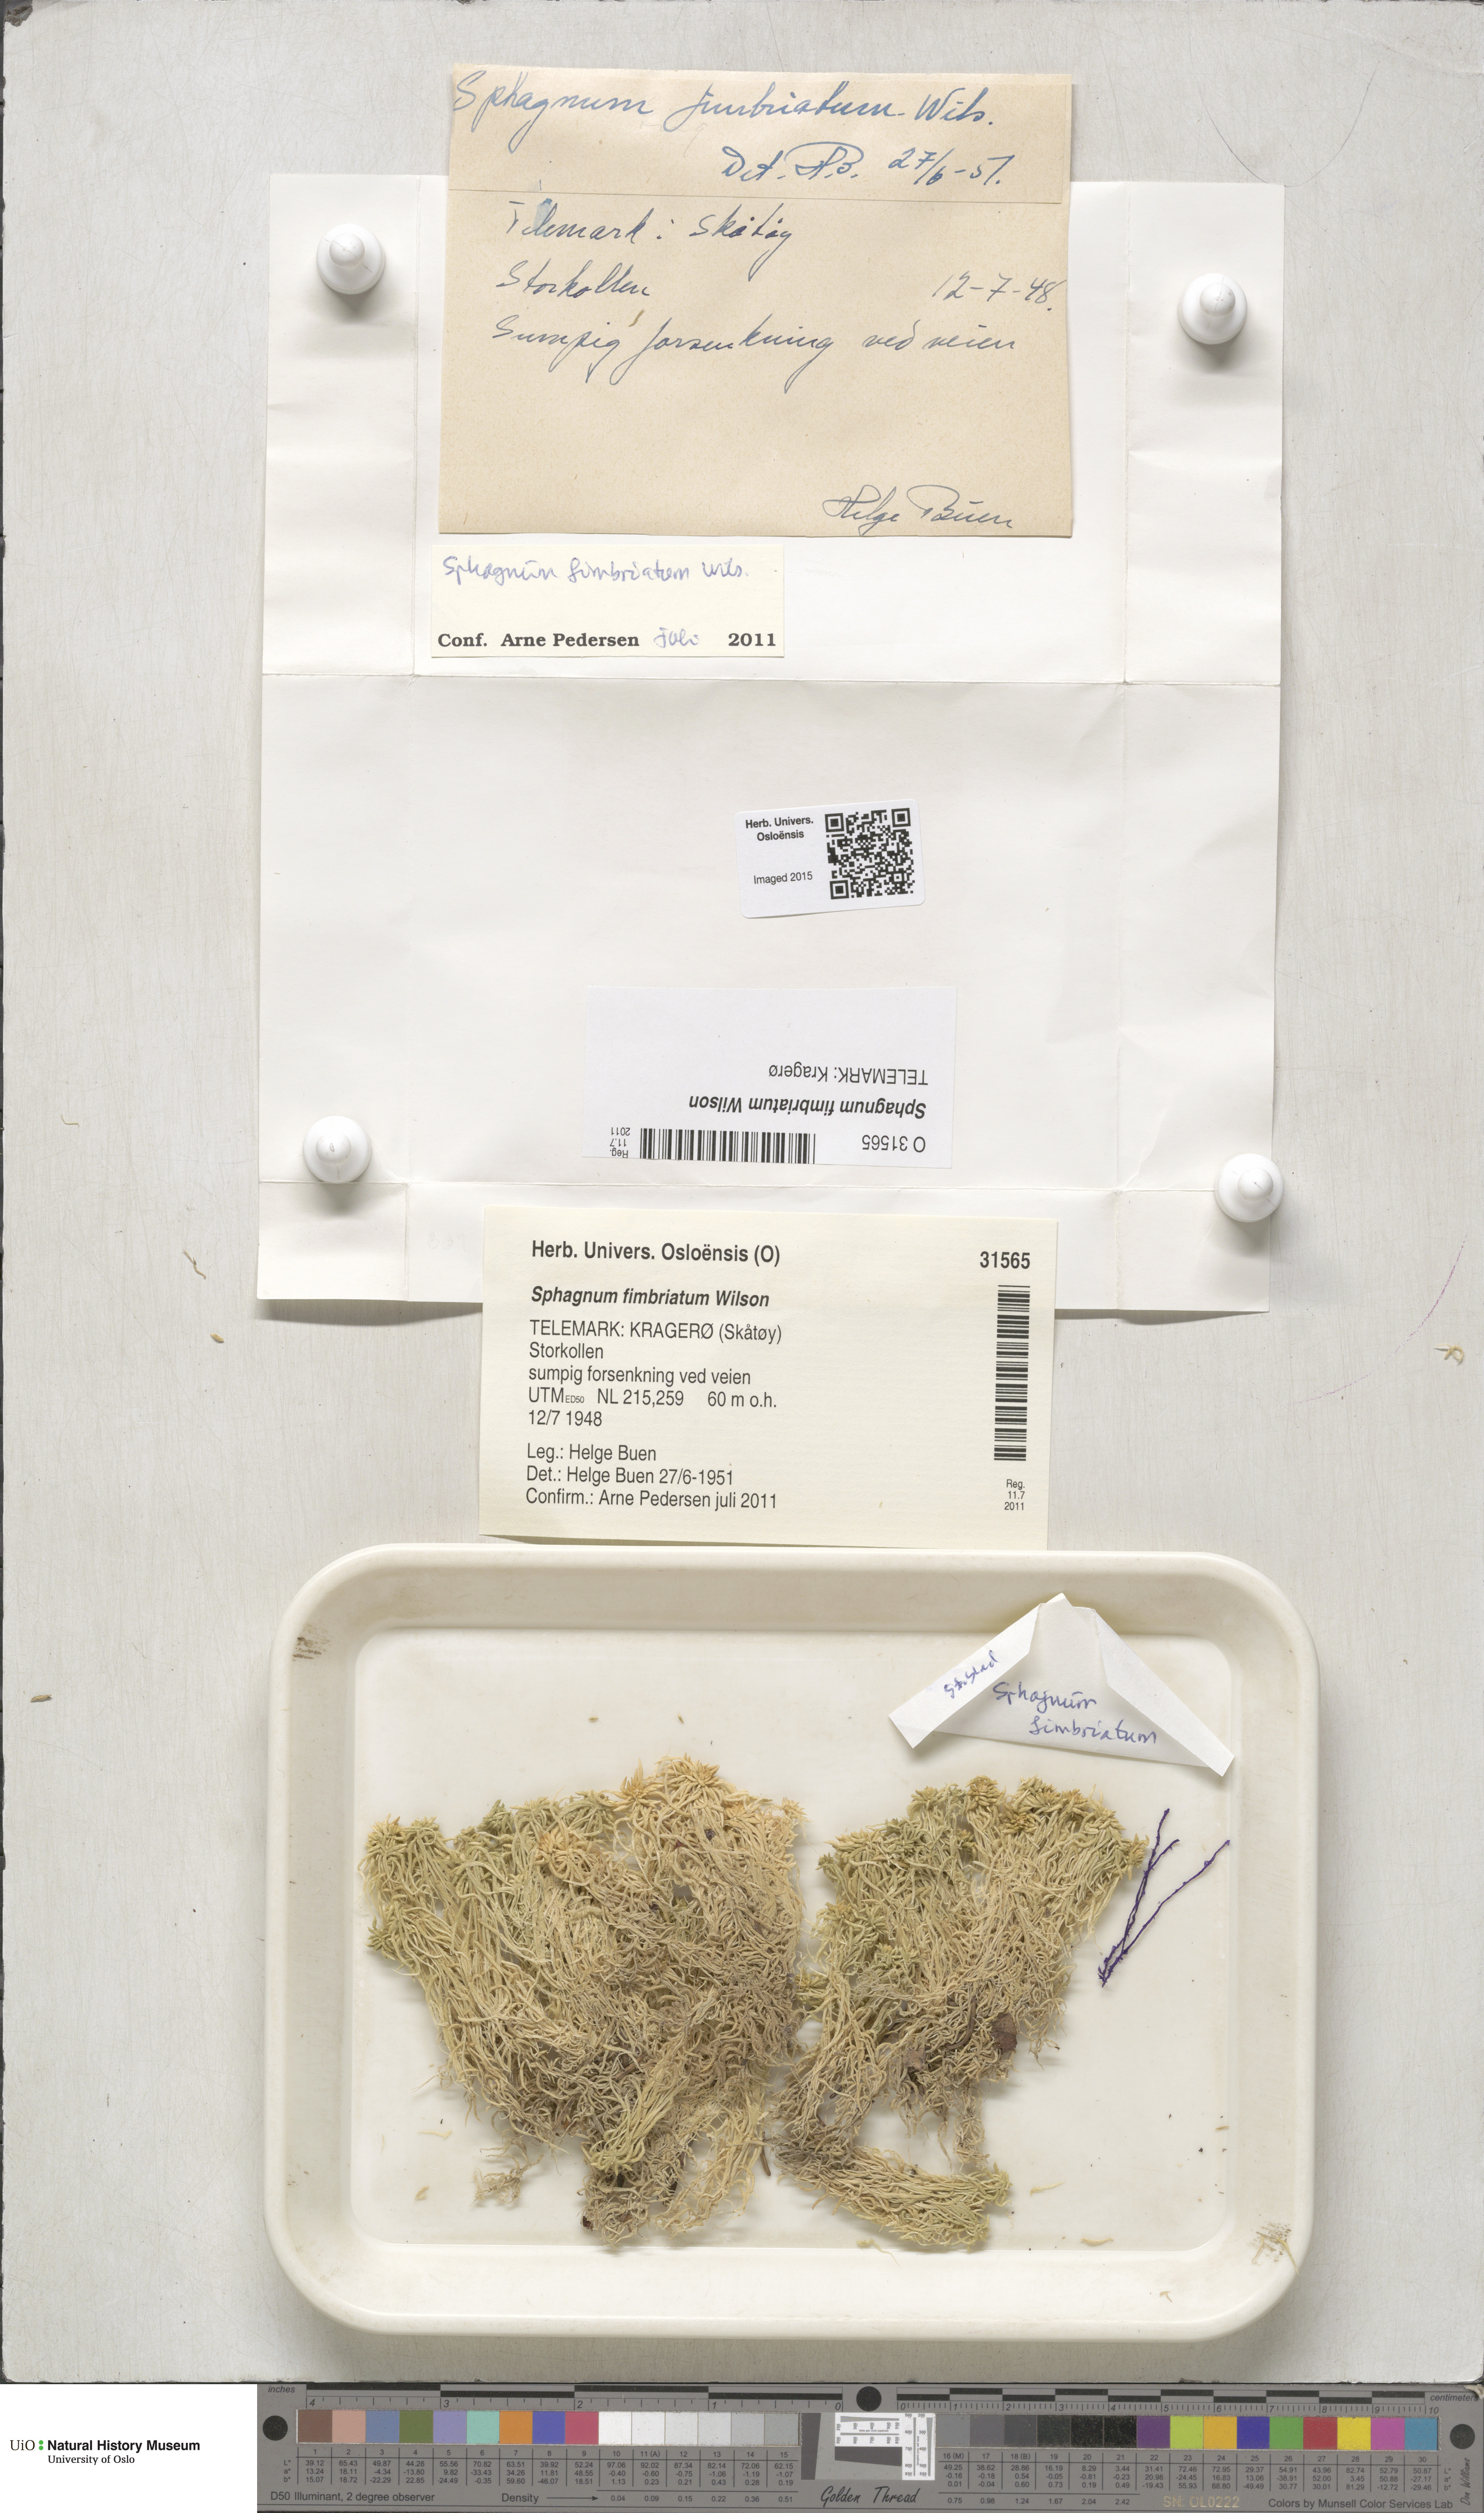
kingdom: Plantae
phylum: Bryophyta
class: Sphagnopsida
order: Sphagnales
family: Sphagnaceae
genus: Sphagnum
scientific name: Sphagnum fimbriatum
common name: Fringed peat moss
